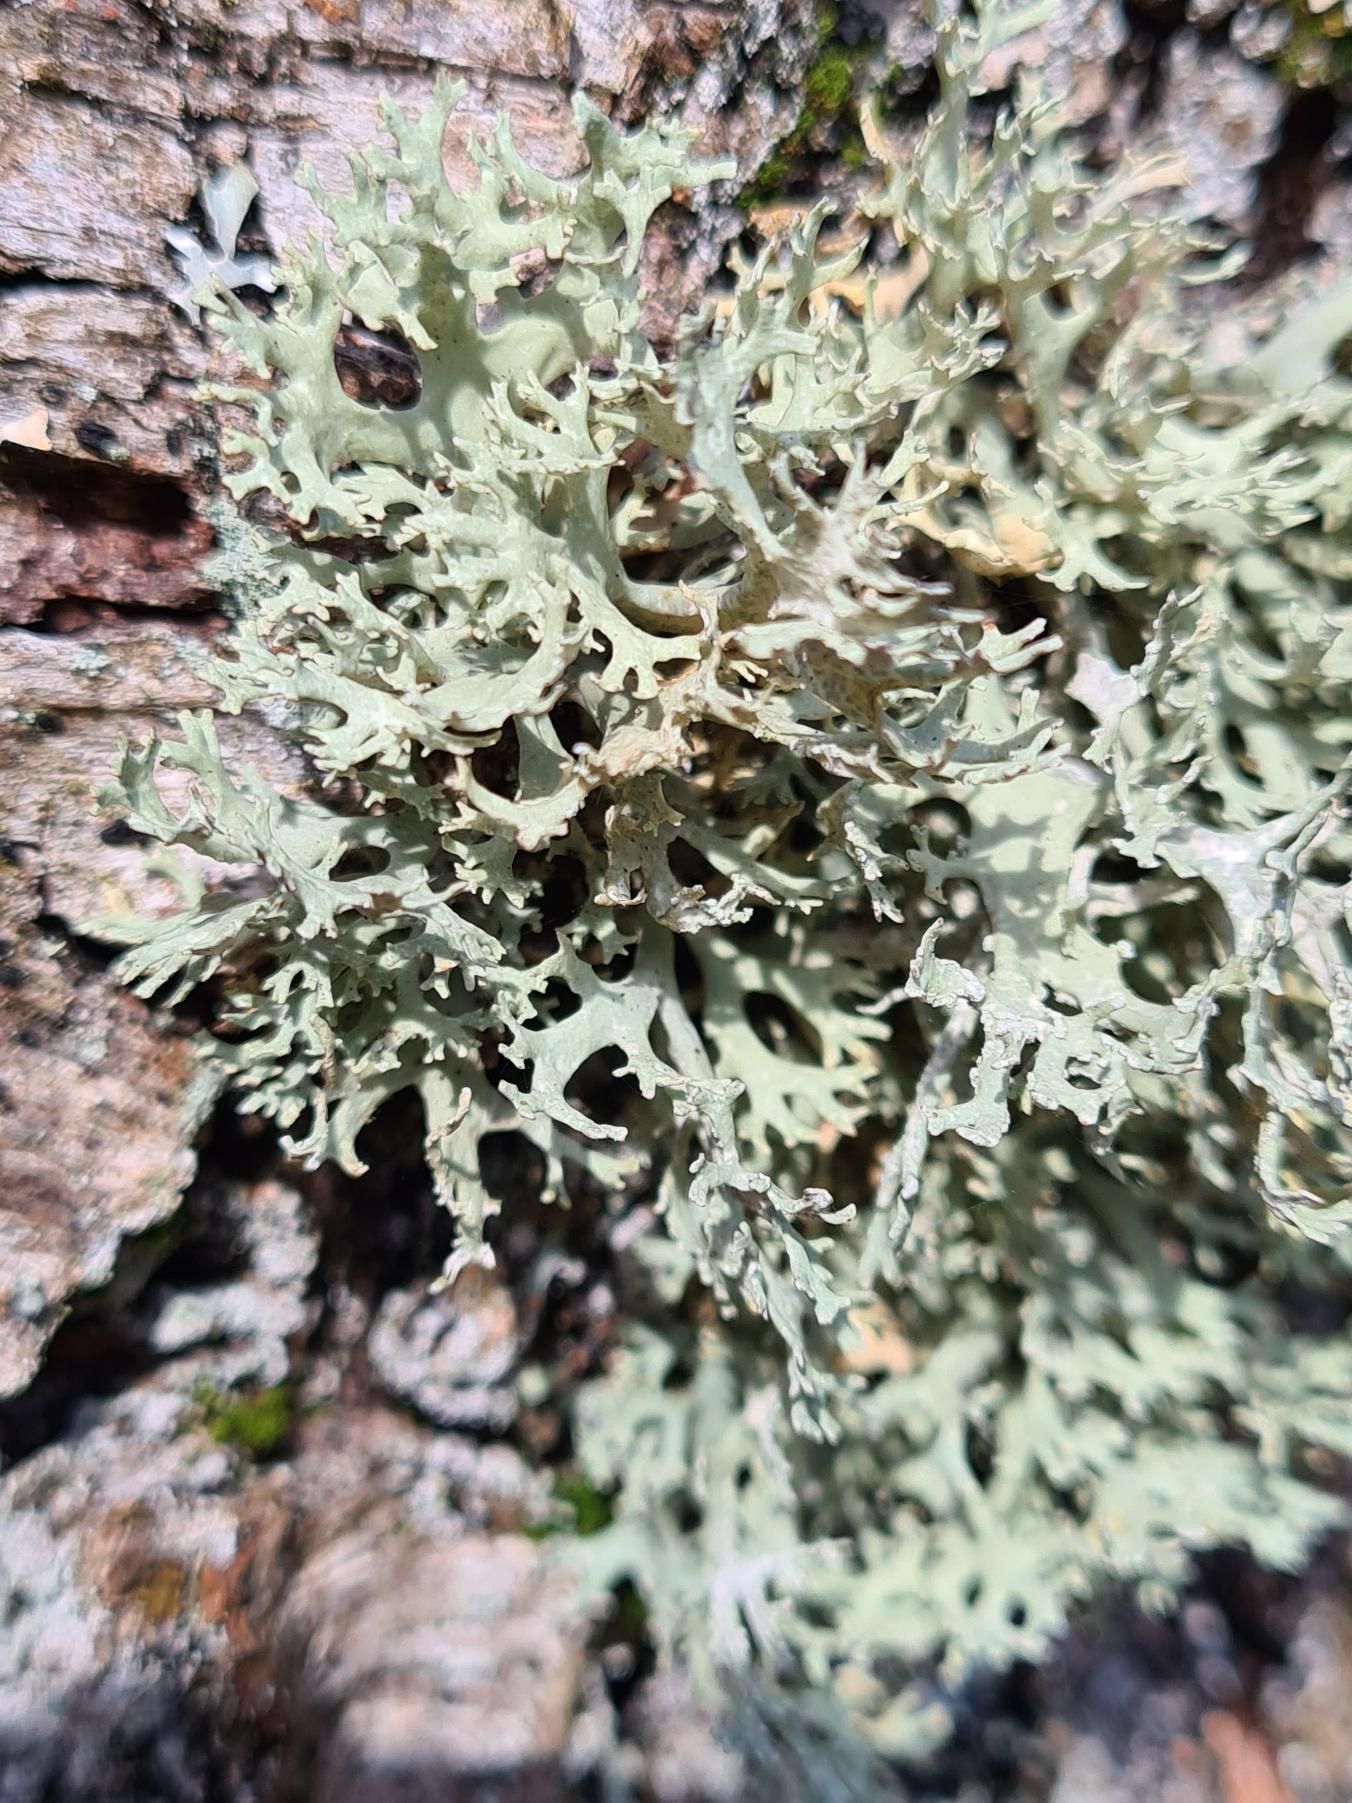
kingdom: Fungi
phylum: Ascomycota
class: Lecanoromycetes
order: Lecanorales
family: Parmeliaceae
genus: Evernia
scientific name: Evernia prunastri
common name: Almindelig slåenlav
